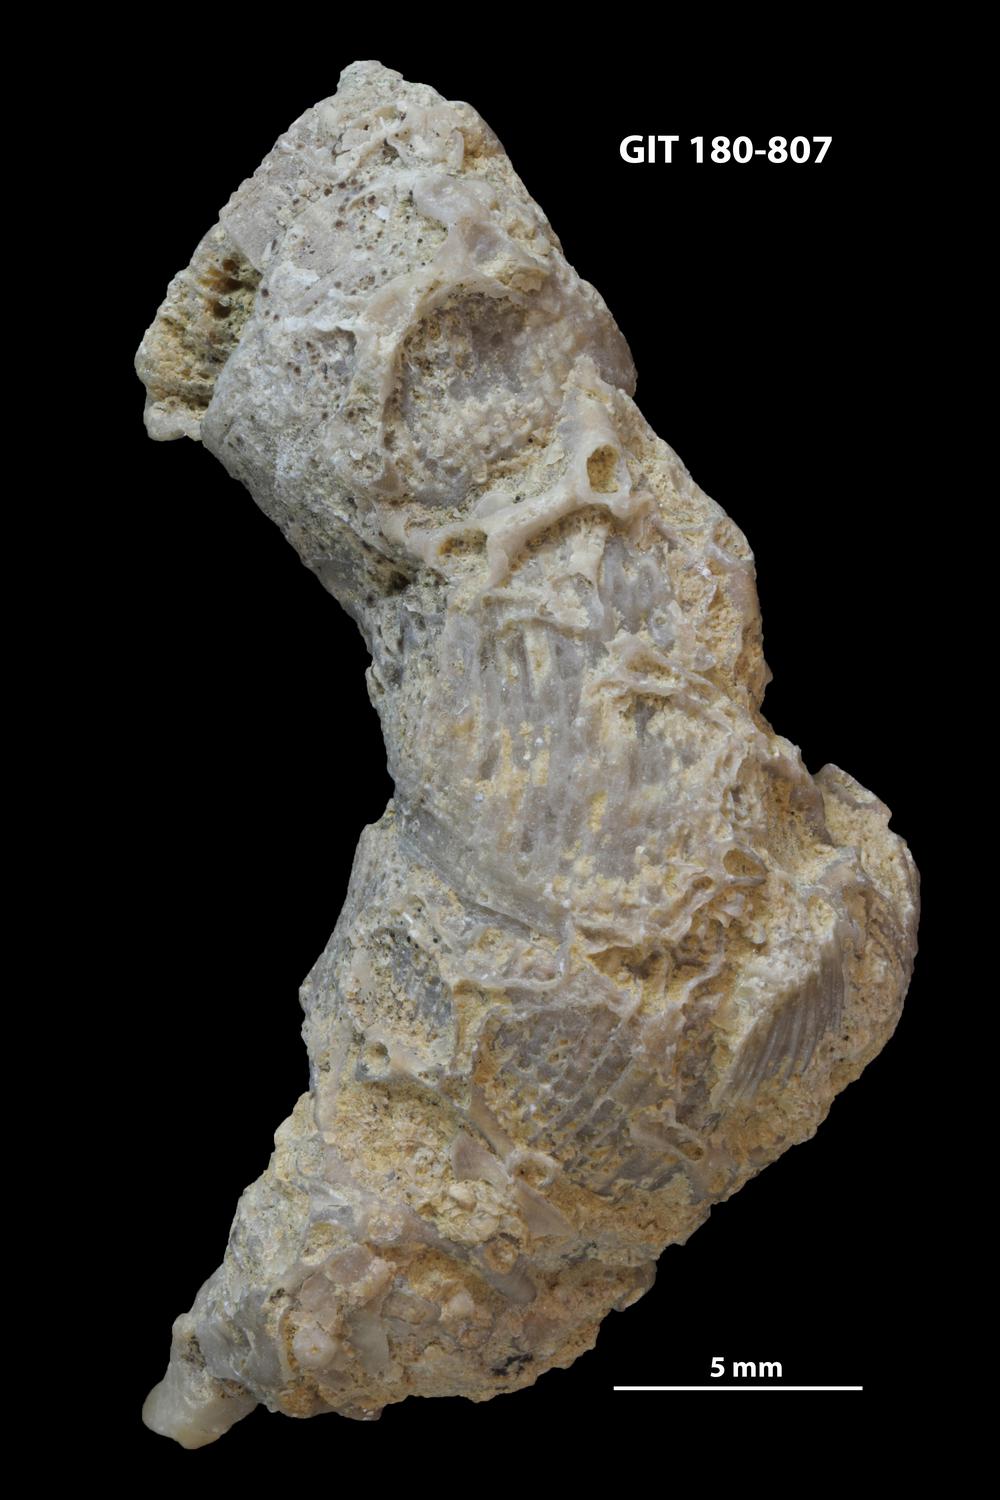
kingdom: Animalia
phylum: Cnidaria
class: Anthozoa
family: Auloporidae
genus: Aulopora
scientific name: Aulopora necopina
